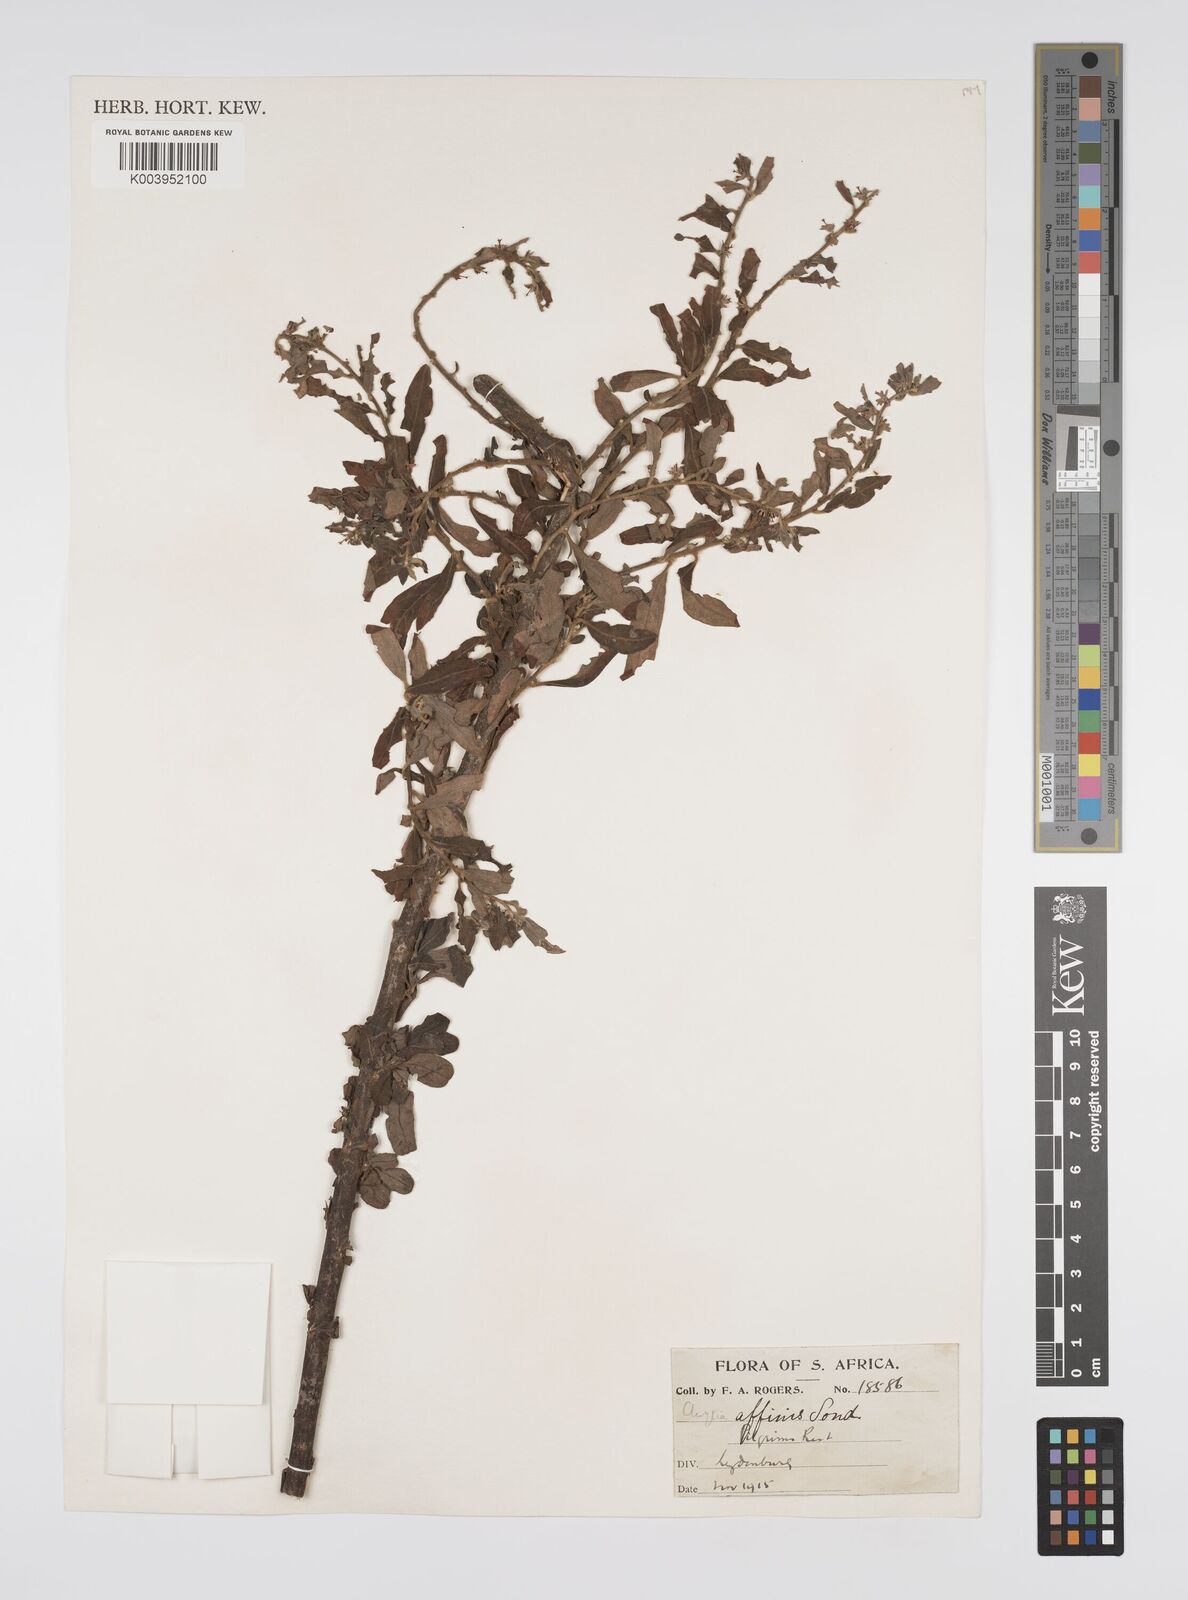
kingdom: Plantae
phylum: Tracheophyta
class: Magnoliopsida
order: Malpighiales
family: Peraceae
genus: Clutia
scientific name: Clutia affinis
